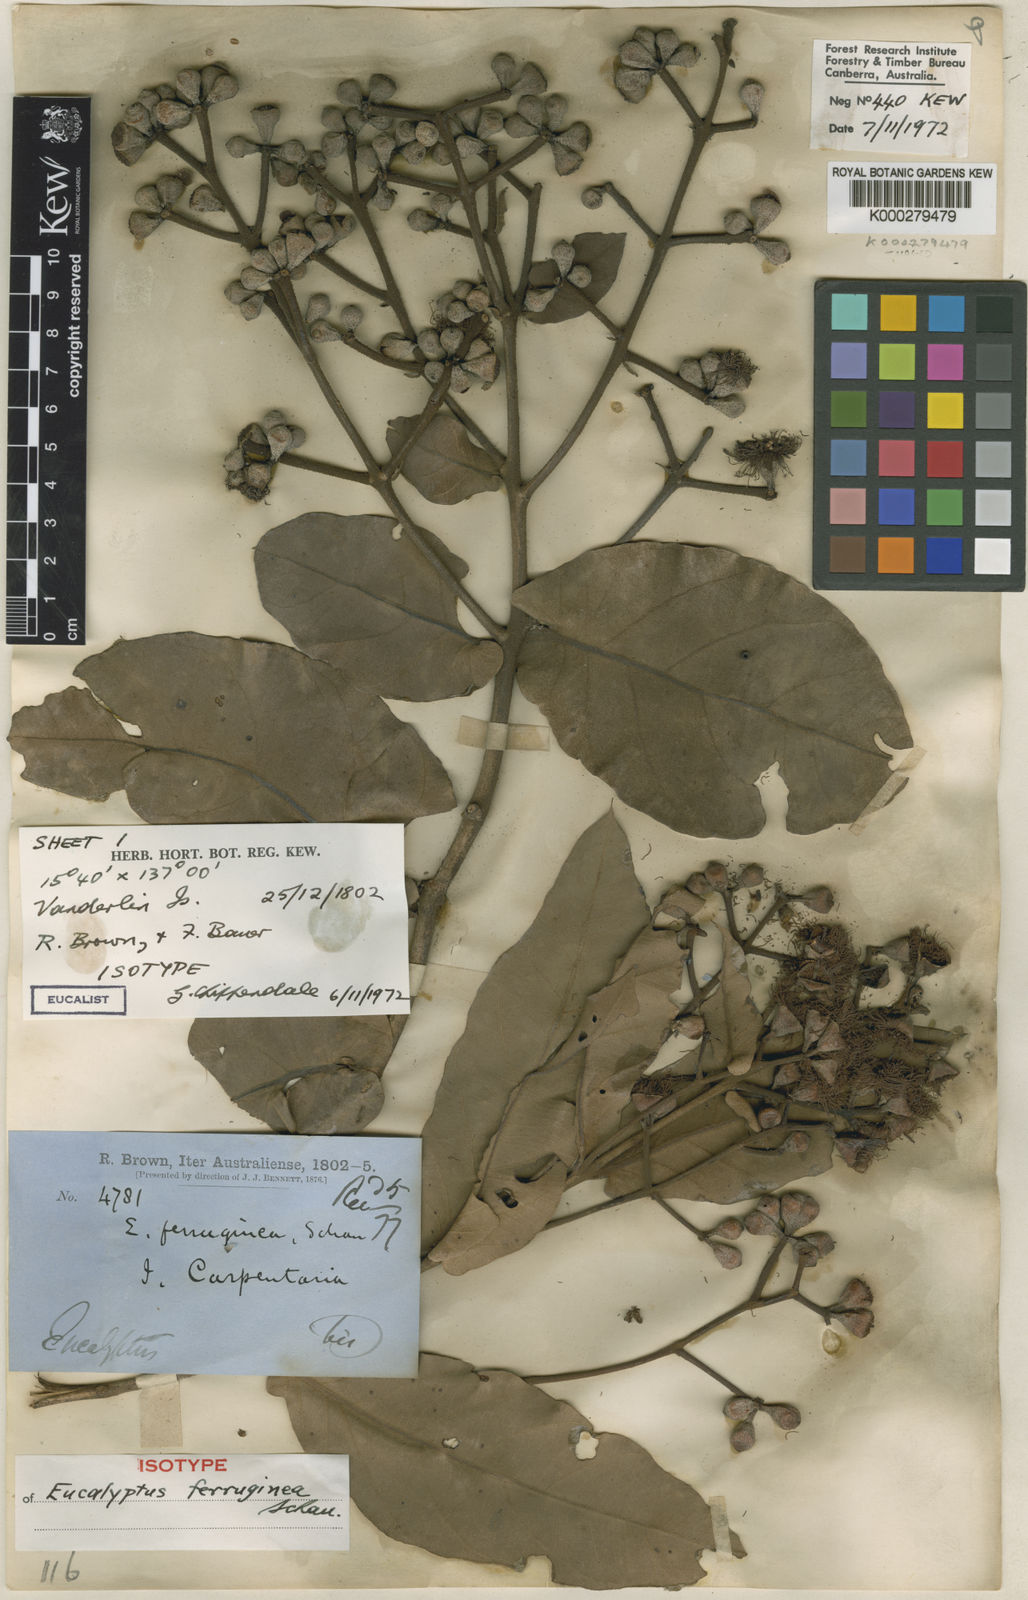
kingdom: Plantae
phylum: Tracheophyta
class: Magnoliopsida
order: Myrtales
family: Myrtaceae
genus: Corymbia
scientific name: Corymbia ferruginea
